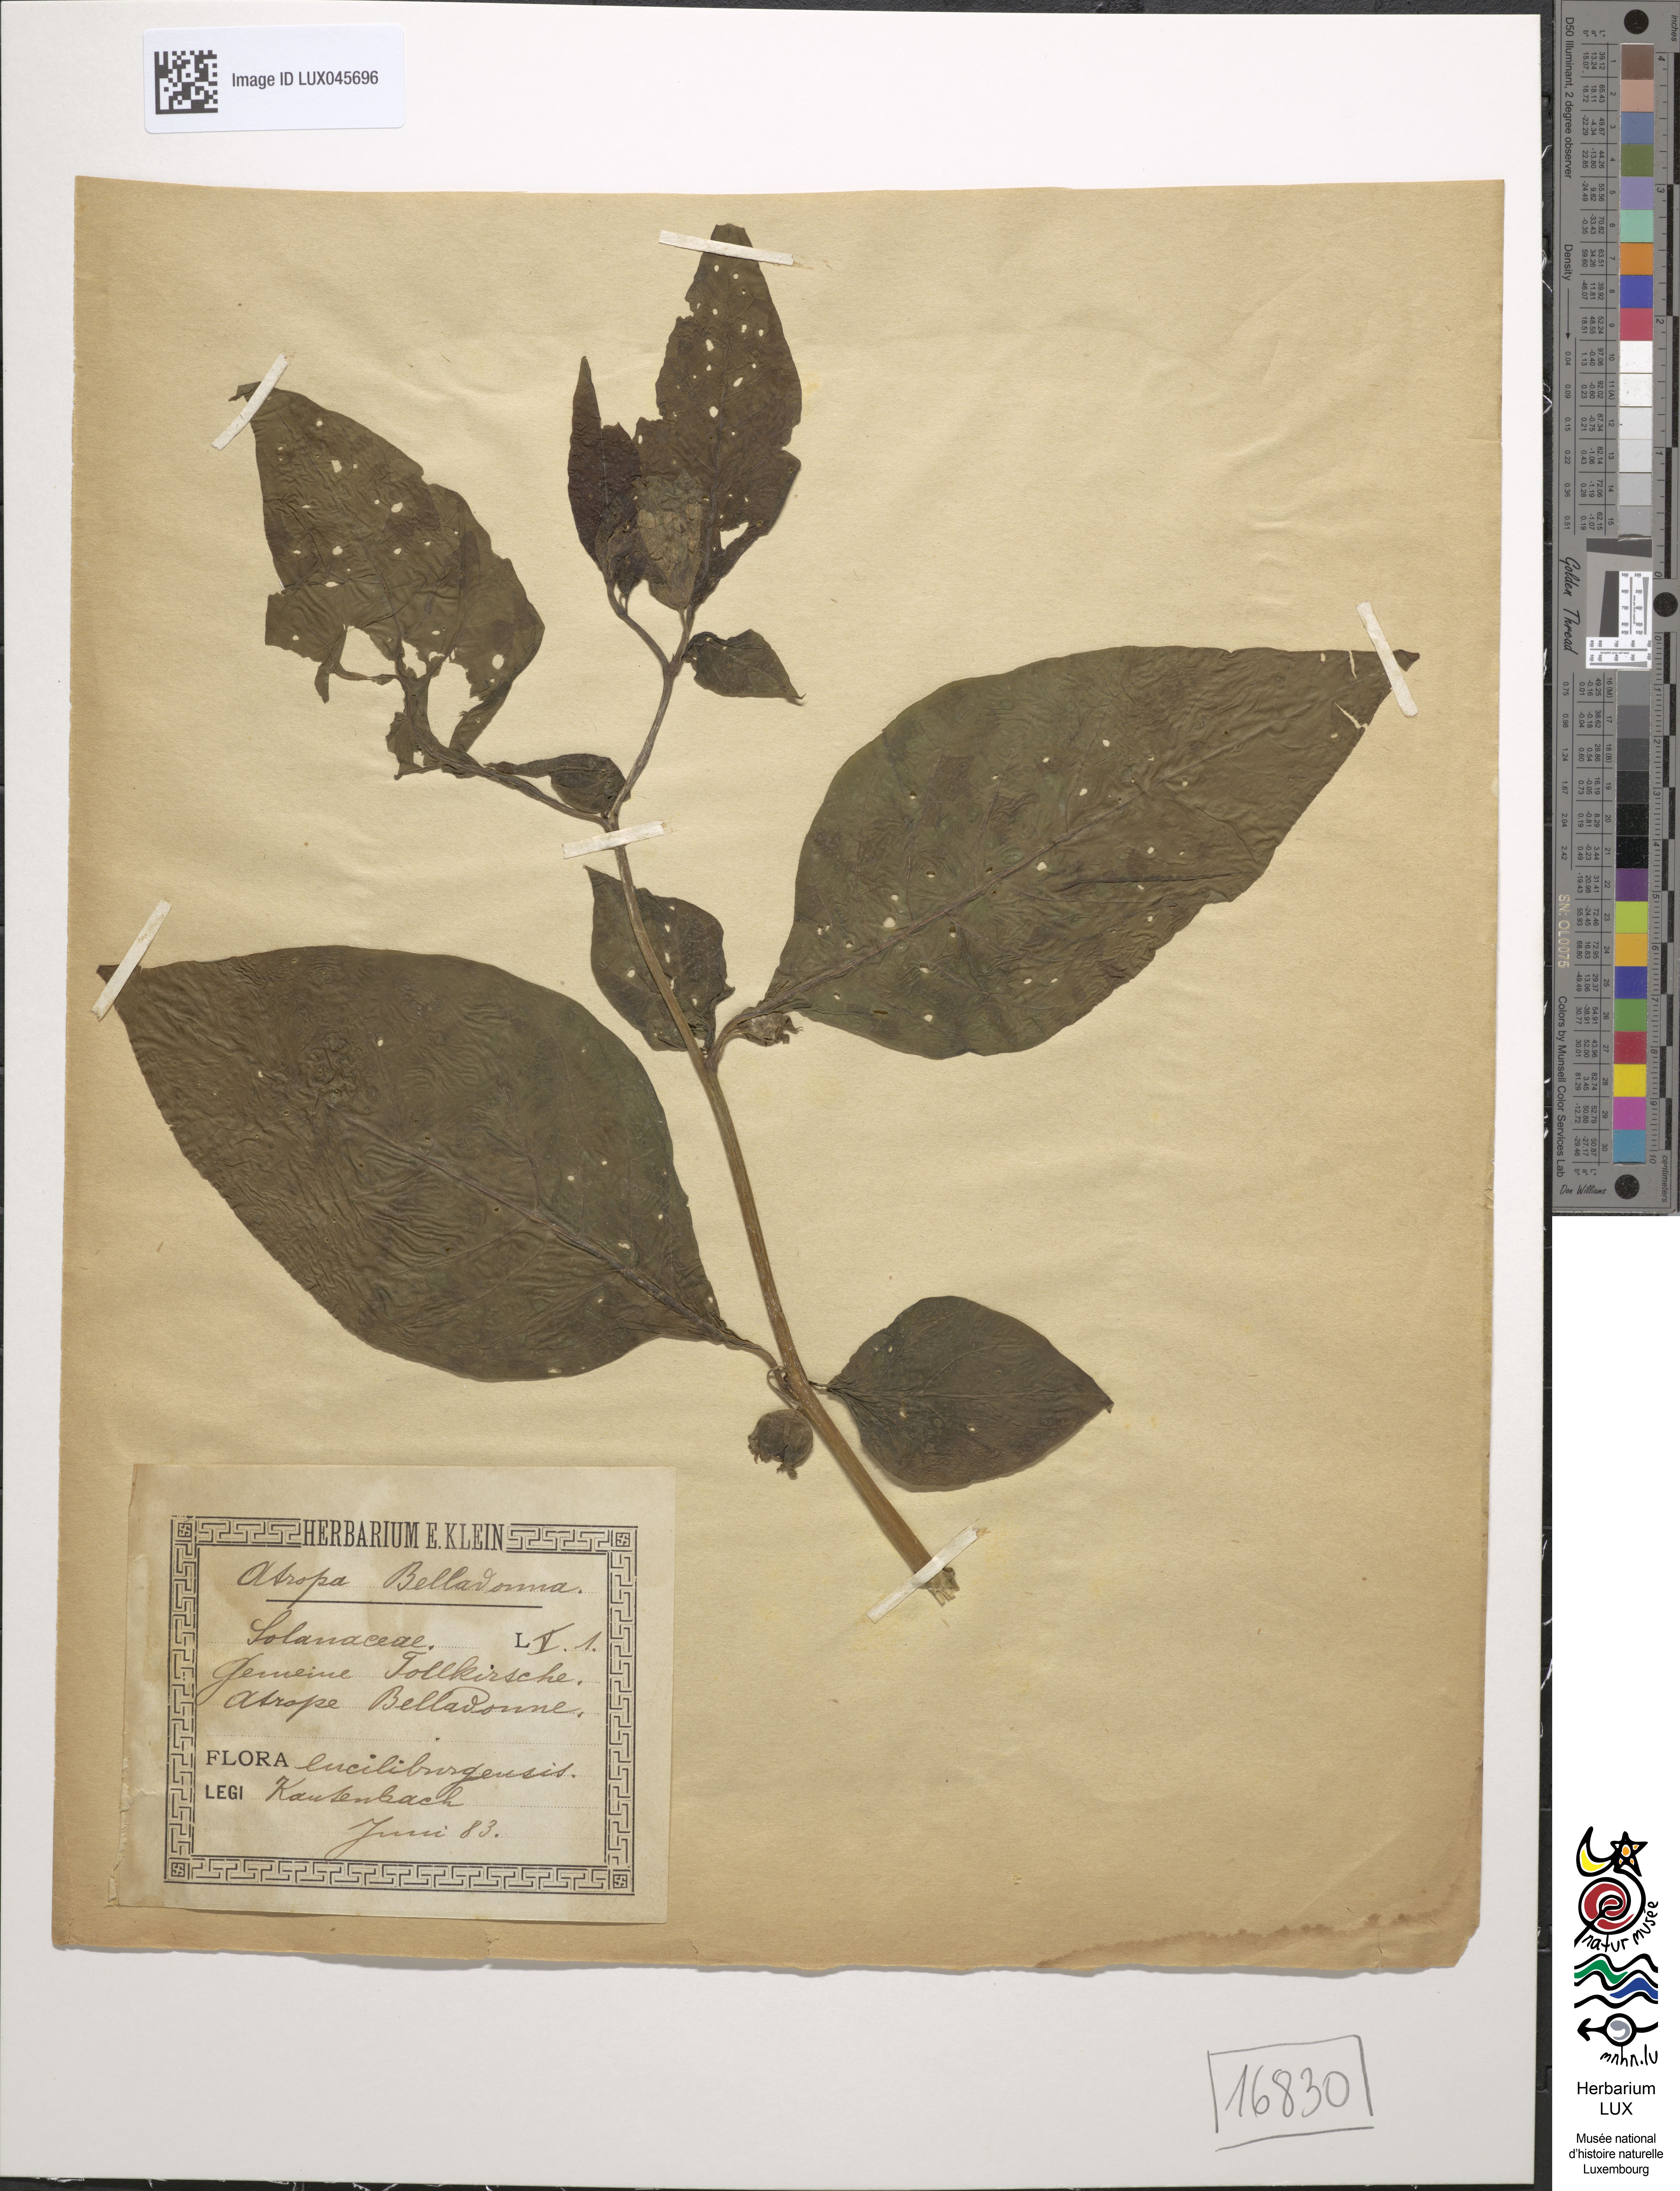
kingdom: Plantae
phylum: Tracheophyta
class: Magnoliopsida
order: Solanales
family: Solanaceae
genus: Atropa
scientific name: Atropa belladonna
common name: Deadly nightshade
